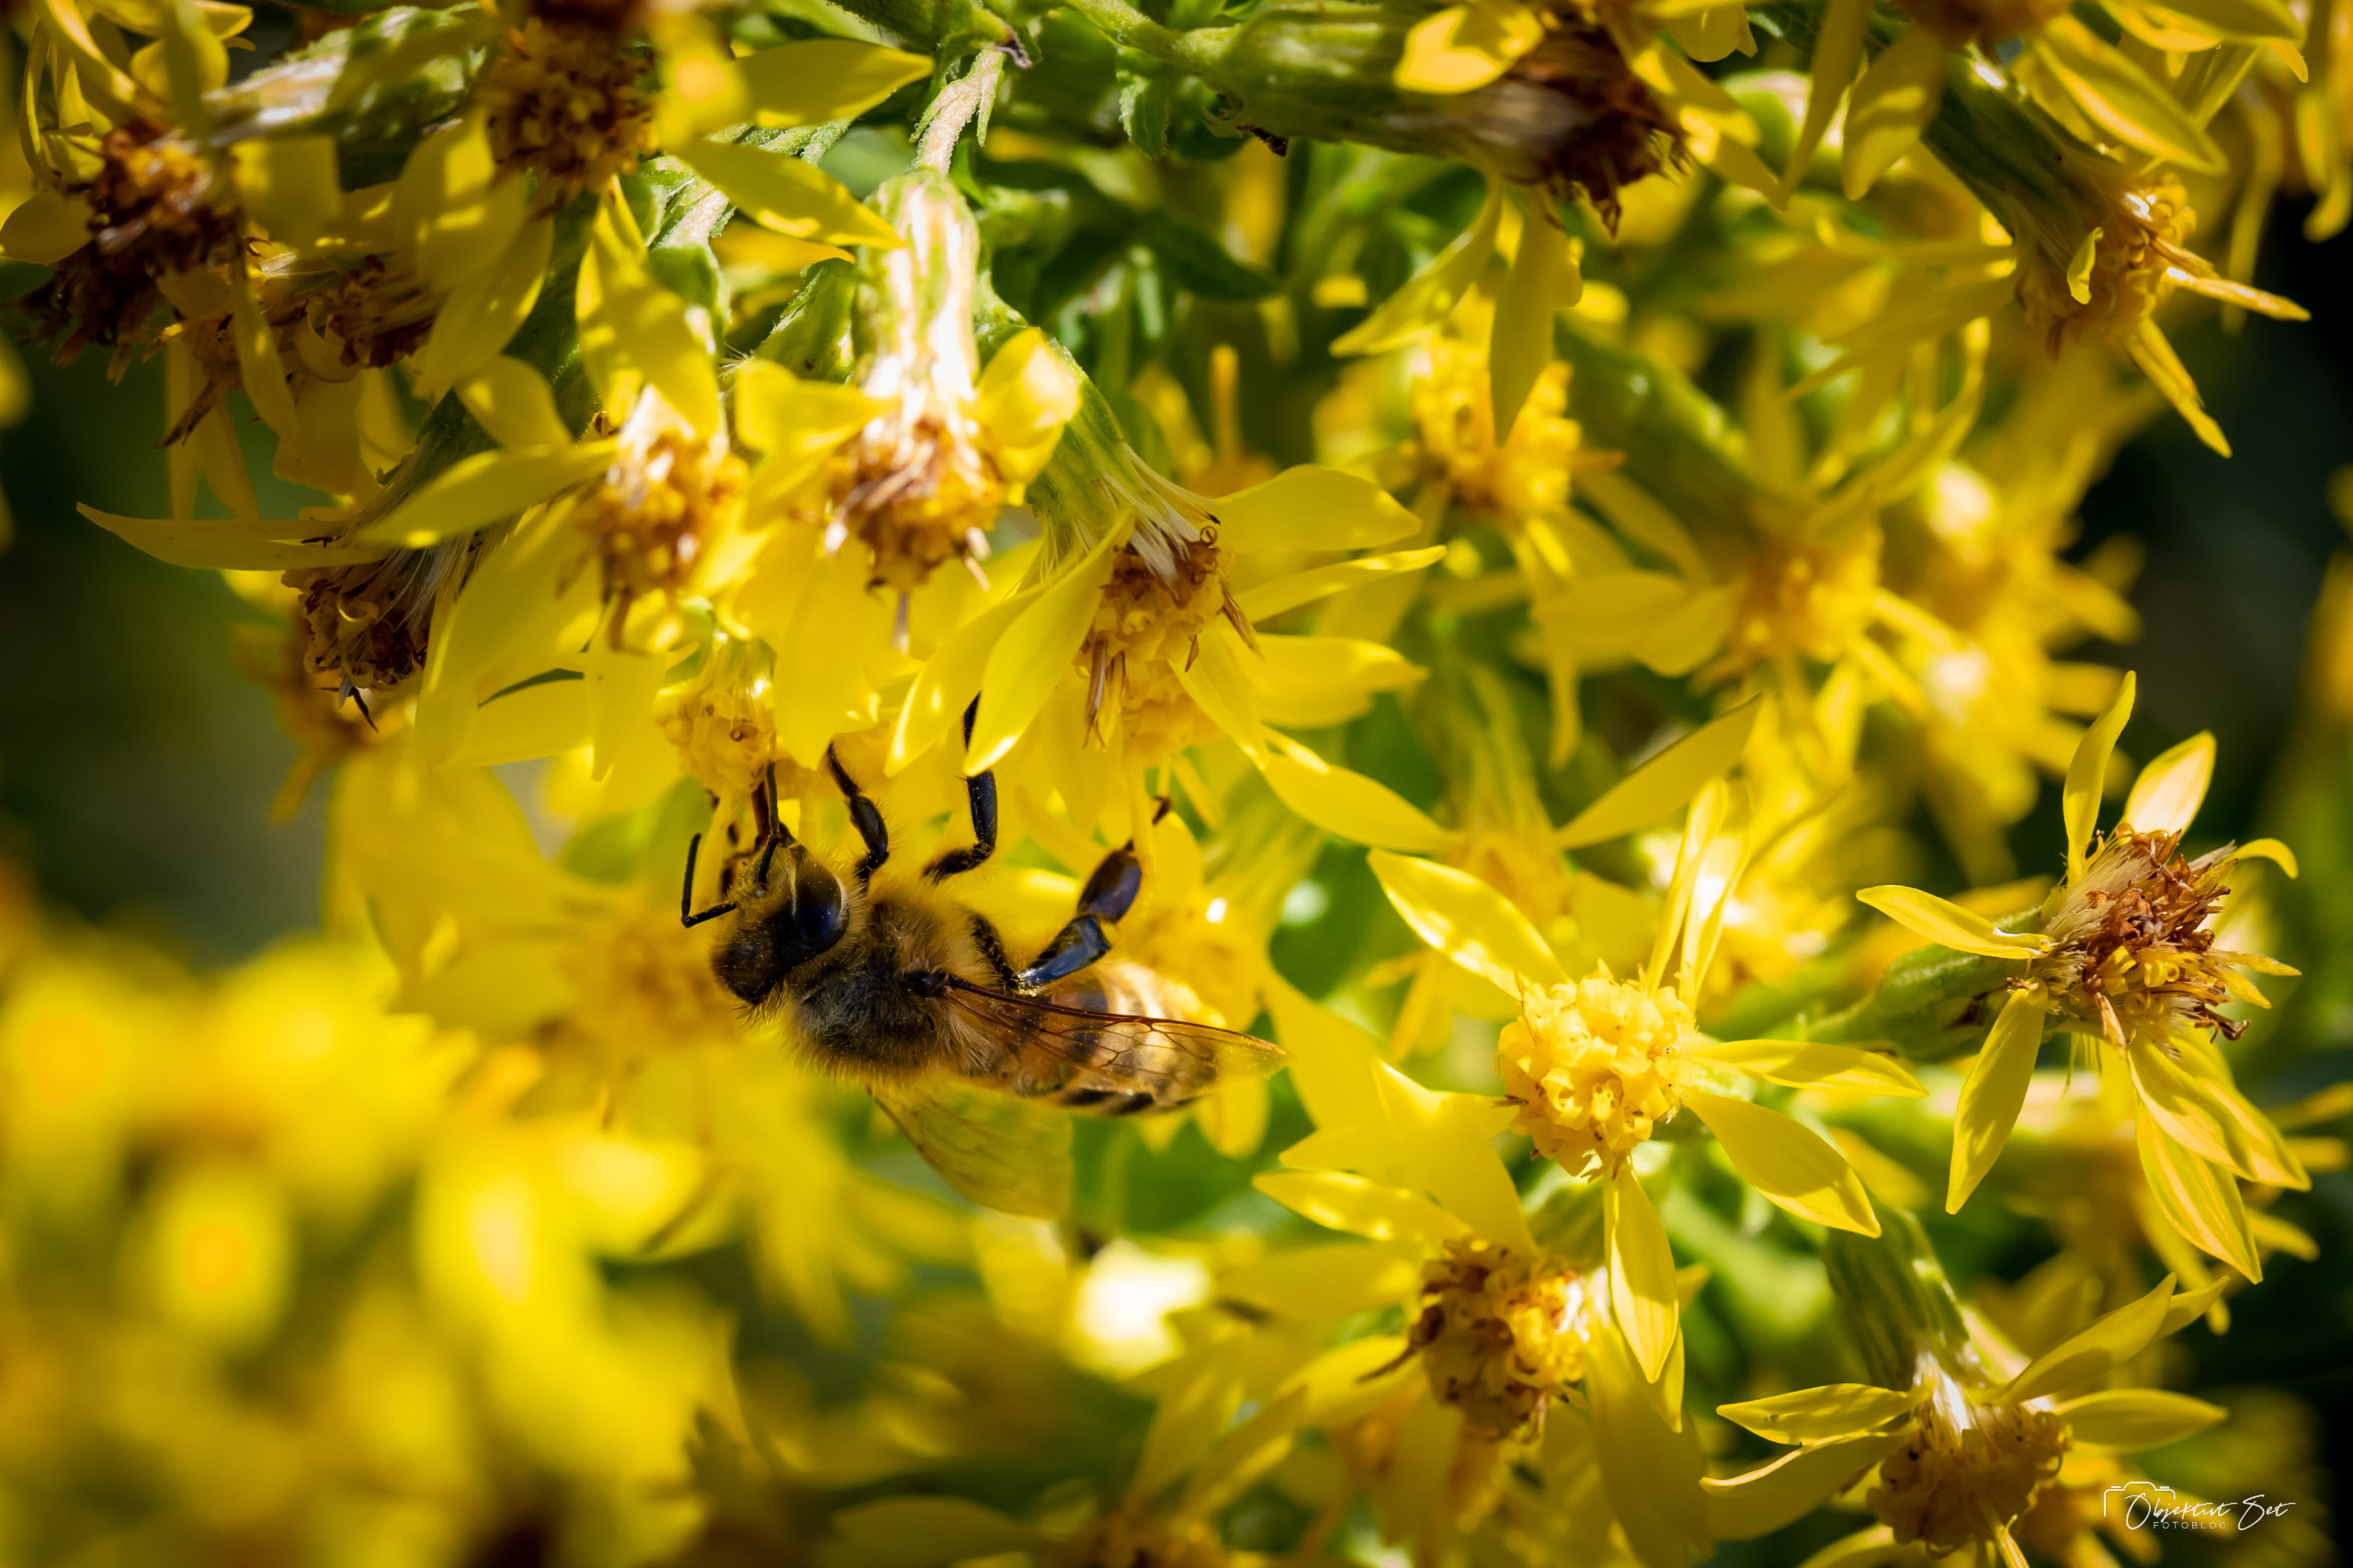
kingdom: Animalia
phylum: Arthropoda
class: Insecta
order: Hymenoptera
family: Apidae
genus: Apis
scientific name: Apis mellifera
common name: Honningbi
